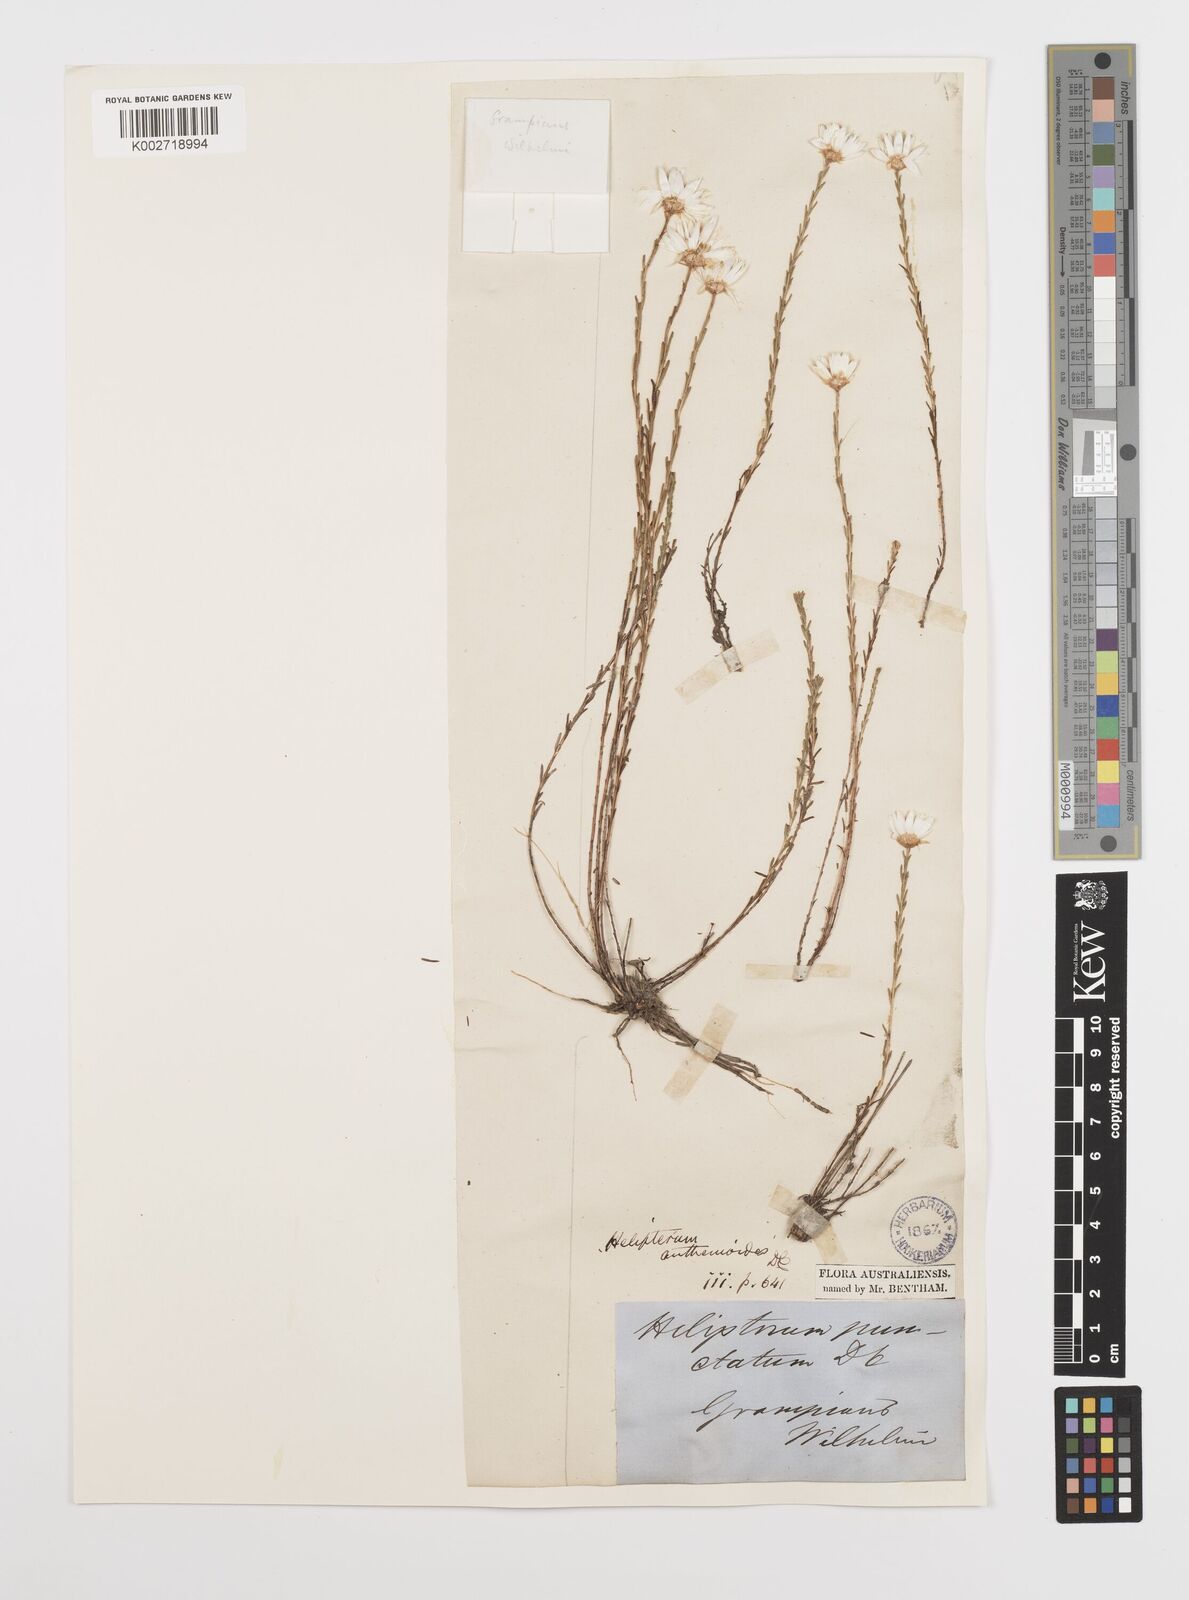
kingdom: Plantae
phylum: Tracheophyta
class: Magnoliopsida
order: Asterales
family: Asteraceae
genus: Rhodanthe
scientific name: Rhodanthe anthemoides
